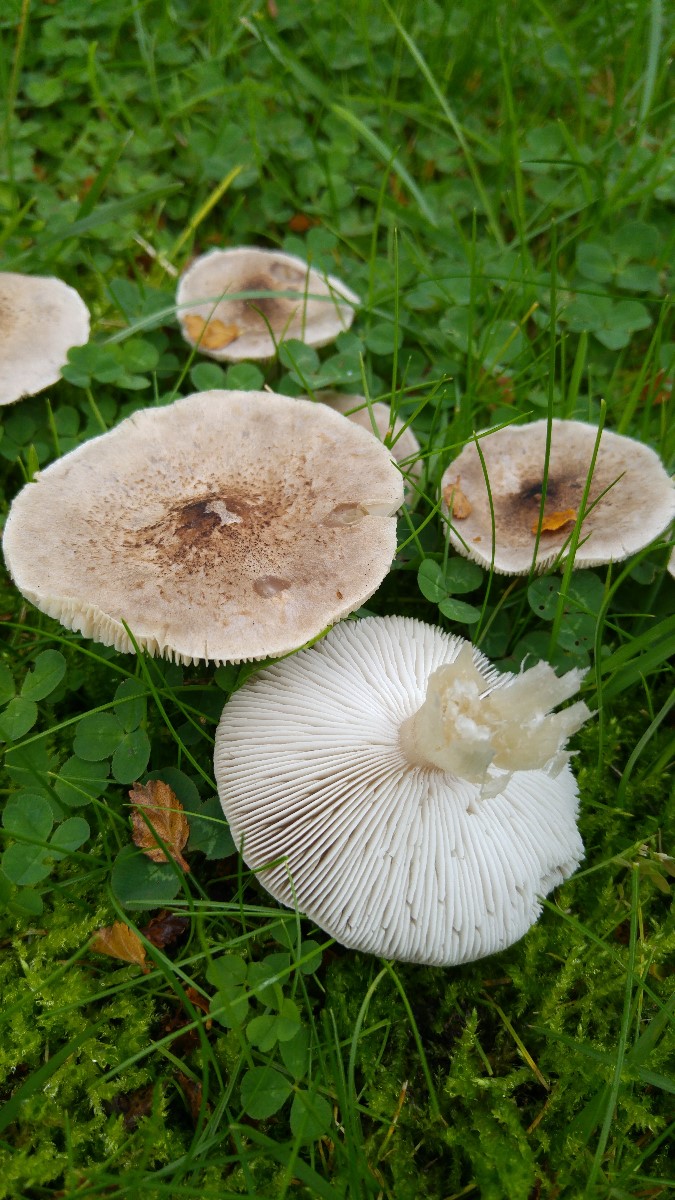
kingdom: Fungi
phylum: Basidiomycota
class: Agaricomycetes
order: Agaricales
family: Tricholomataceae
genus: Tricholoma
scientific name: Tricholoma
